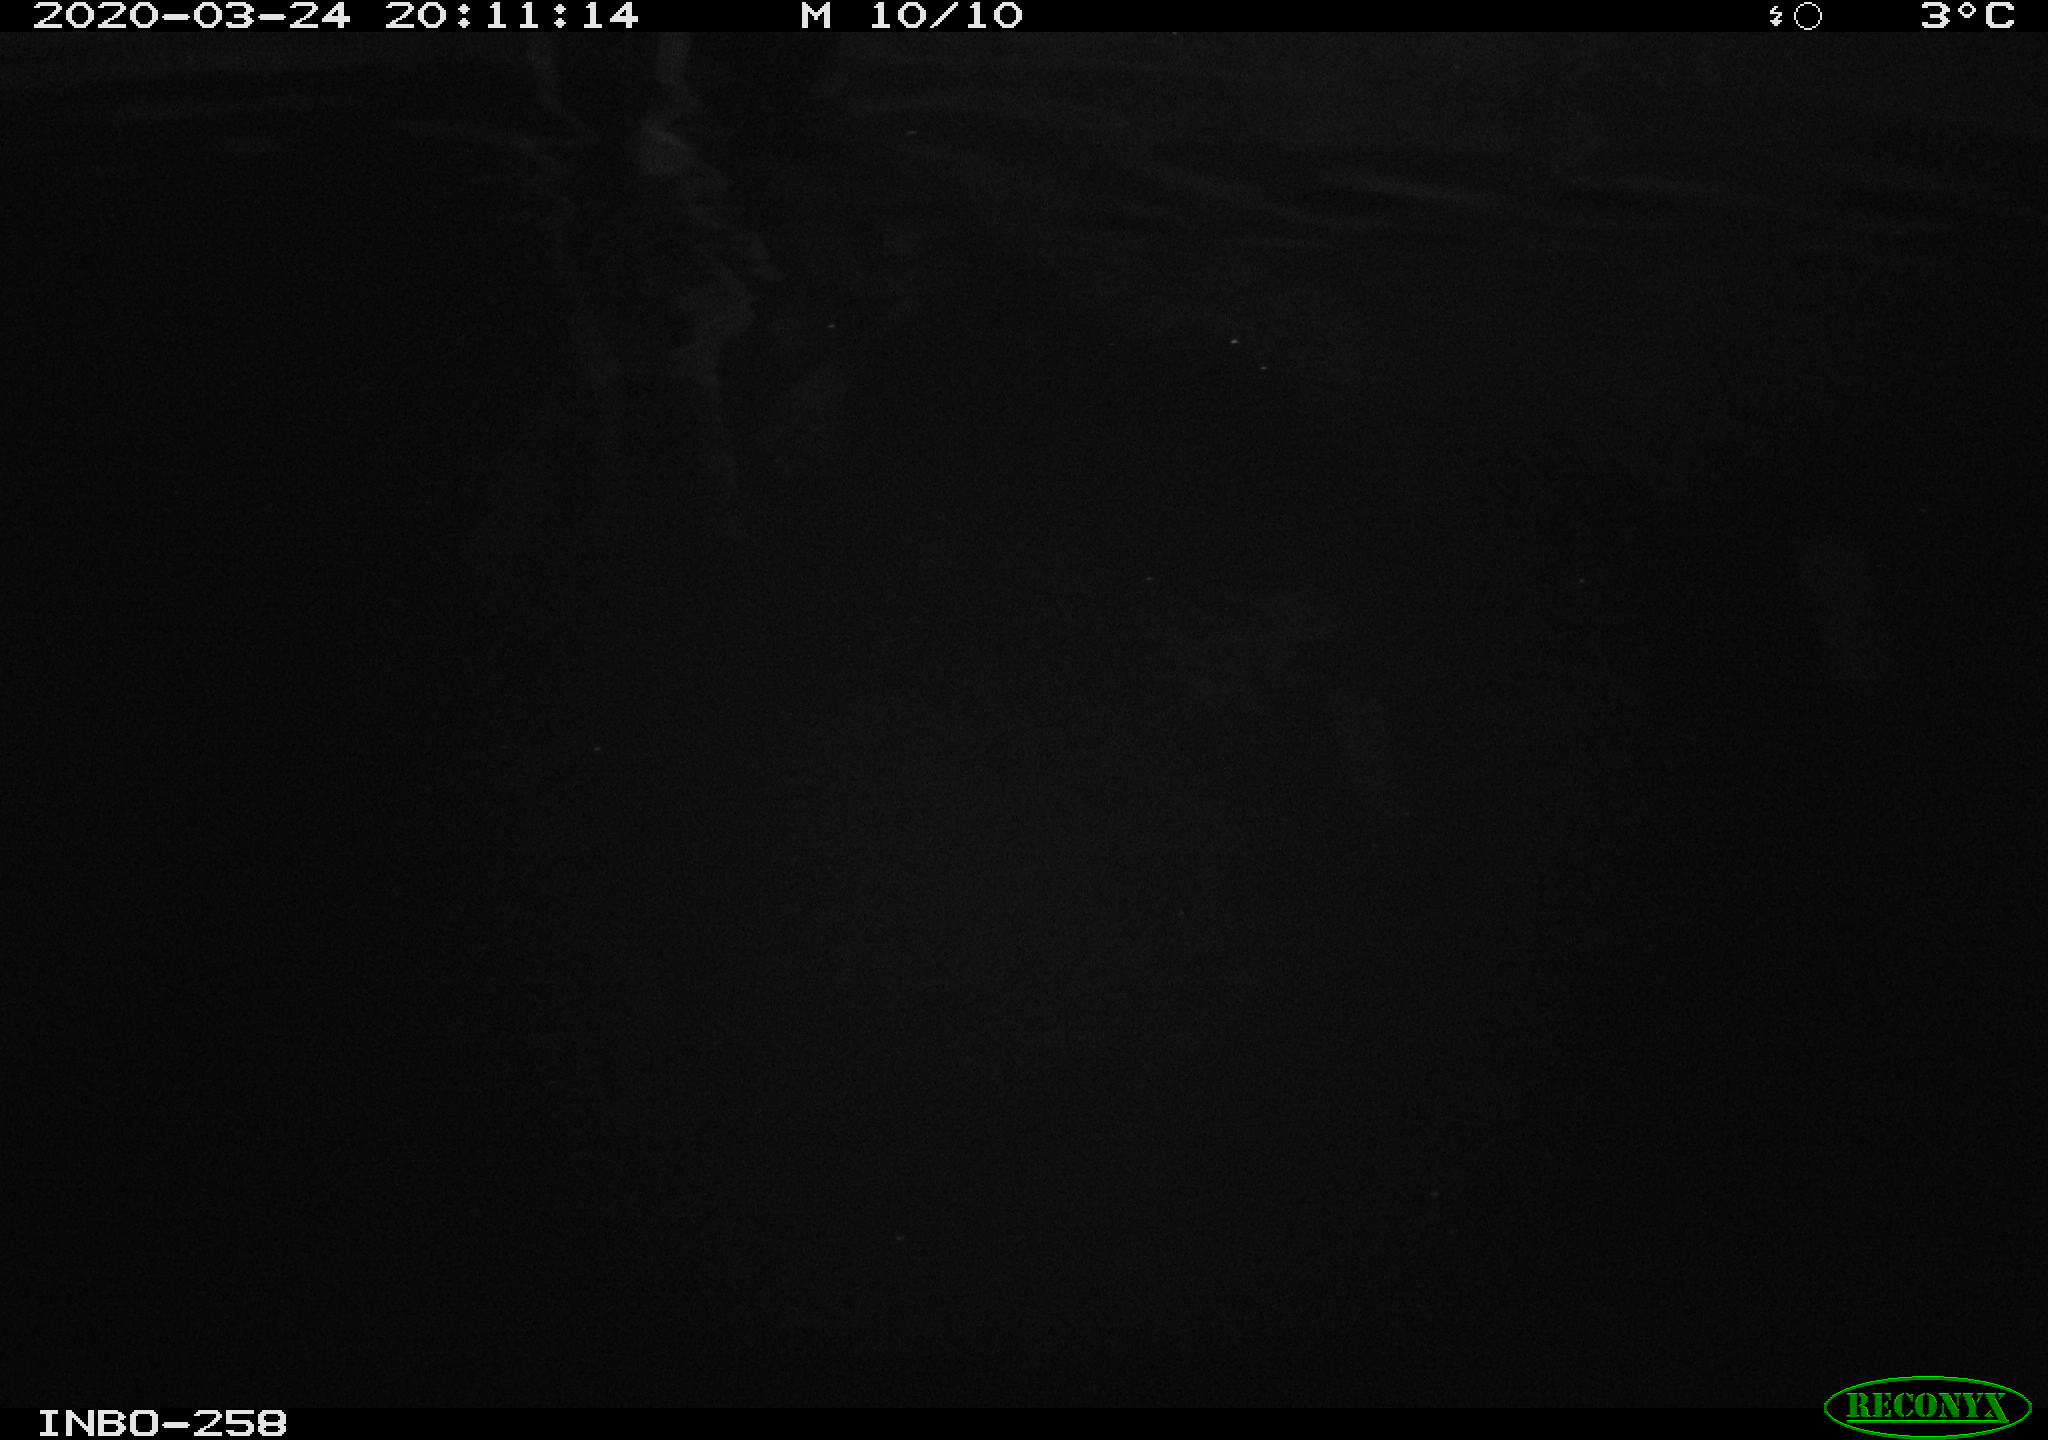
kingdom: Animalia
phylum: Chordata
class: Aves
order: Anseriformes
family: Anatidae
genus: Anas
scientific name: Anas platyrhynchos
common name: Mallard
